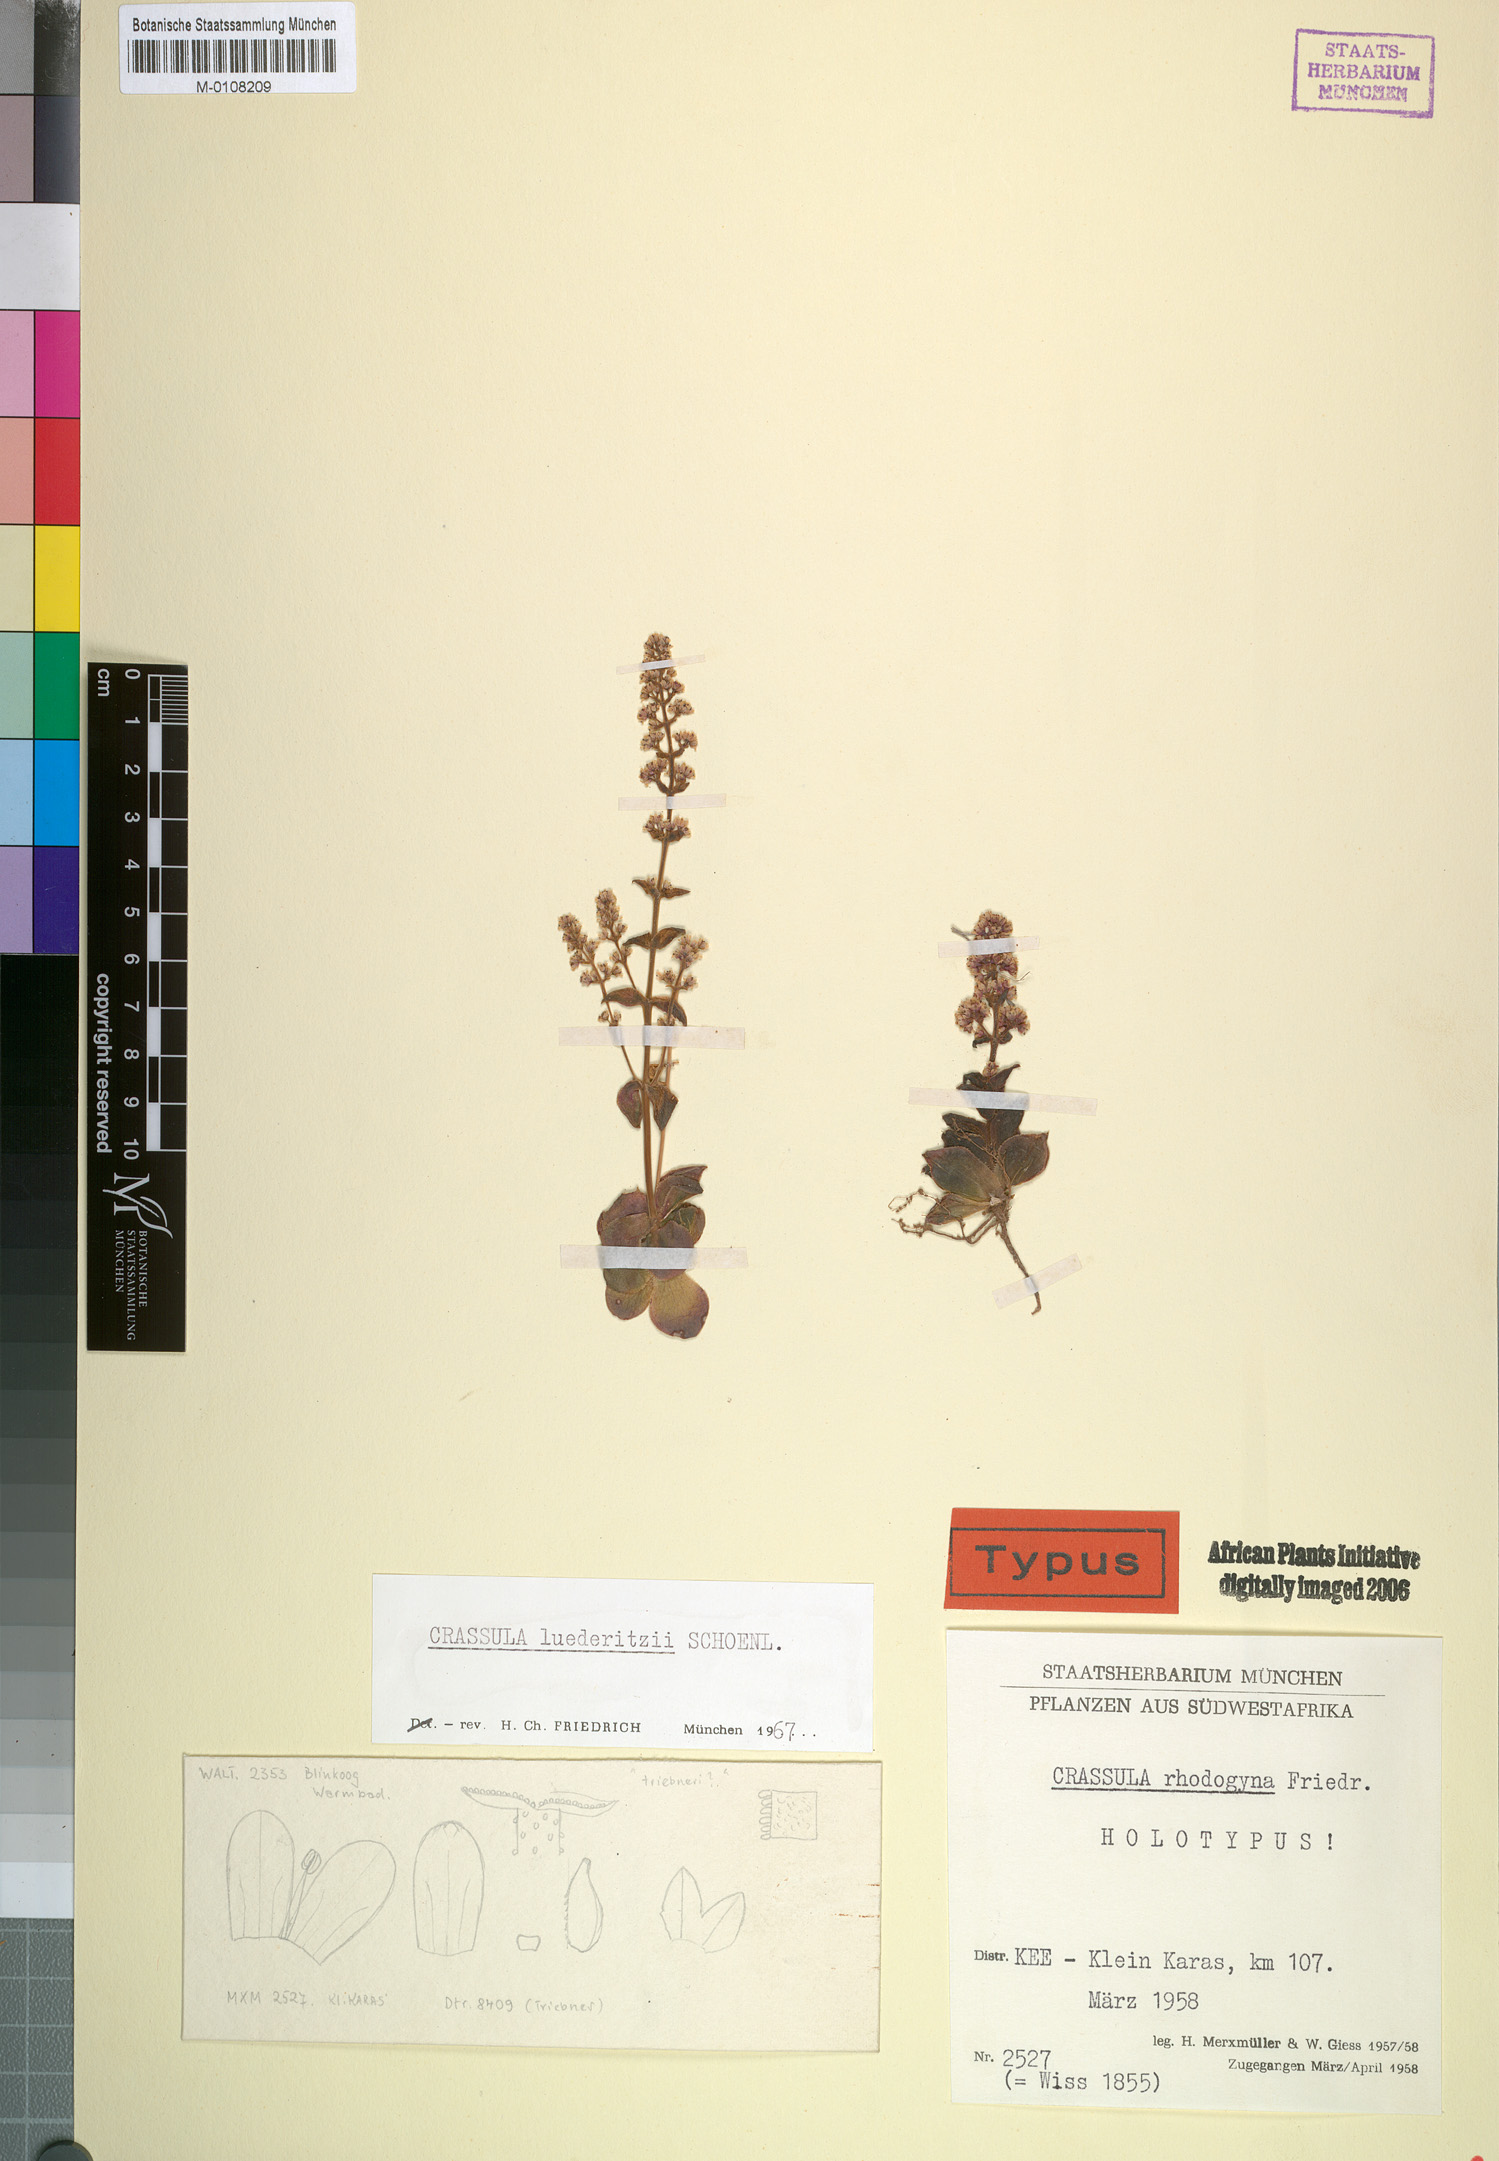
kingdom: Plantae
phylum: Tracheophyta
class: Magnoliopsida
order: Saxifragales
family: Crassulaceae
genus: Crassula
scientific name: Crassula capitella
